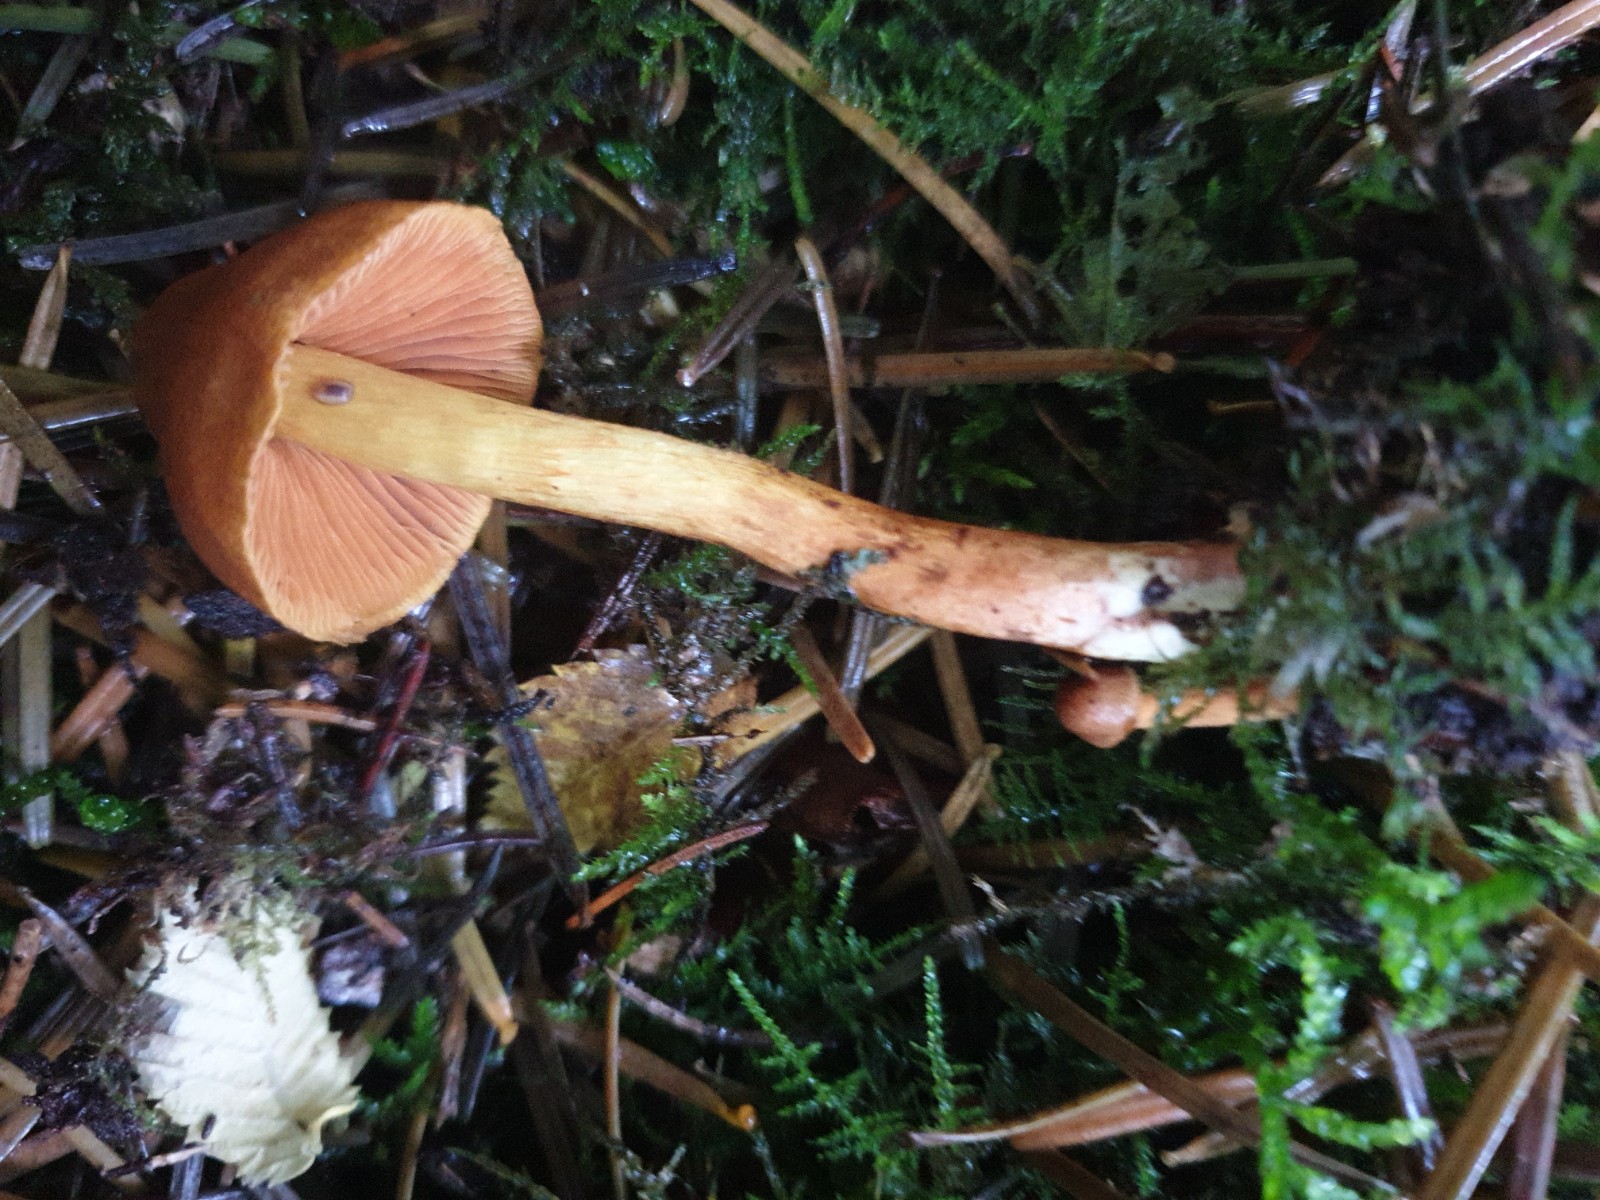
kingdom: Fungi
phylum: Basidiomycota
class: Agaricomycetes
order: Agaricales
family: Cortinariaceae
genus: Cortinarius
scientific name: Cortinarius
